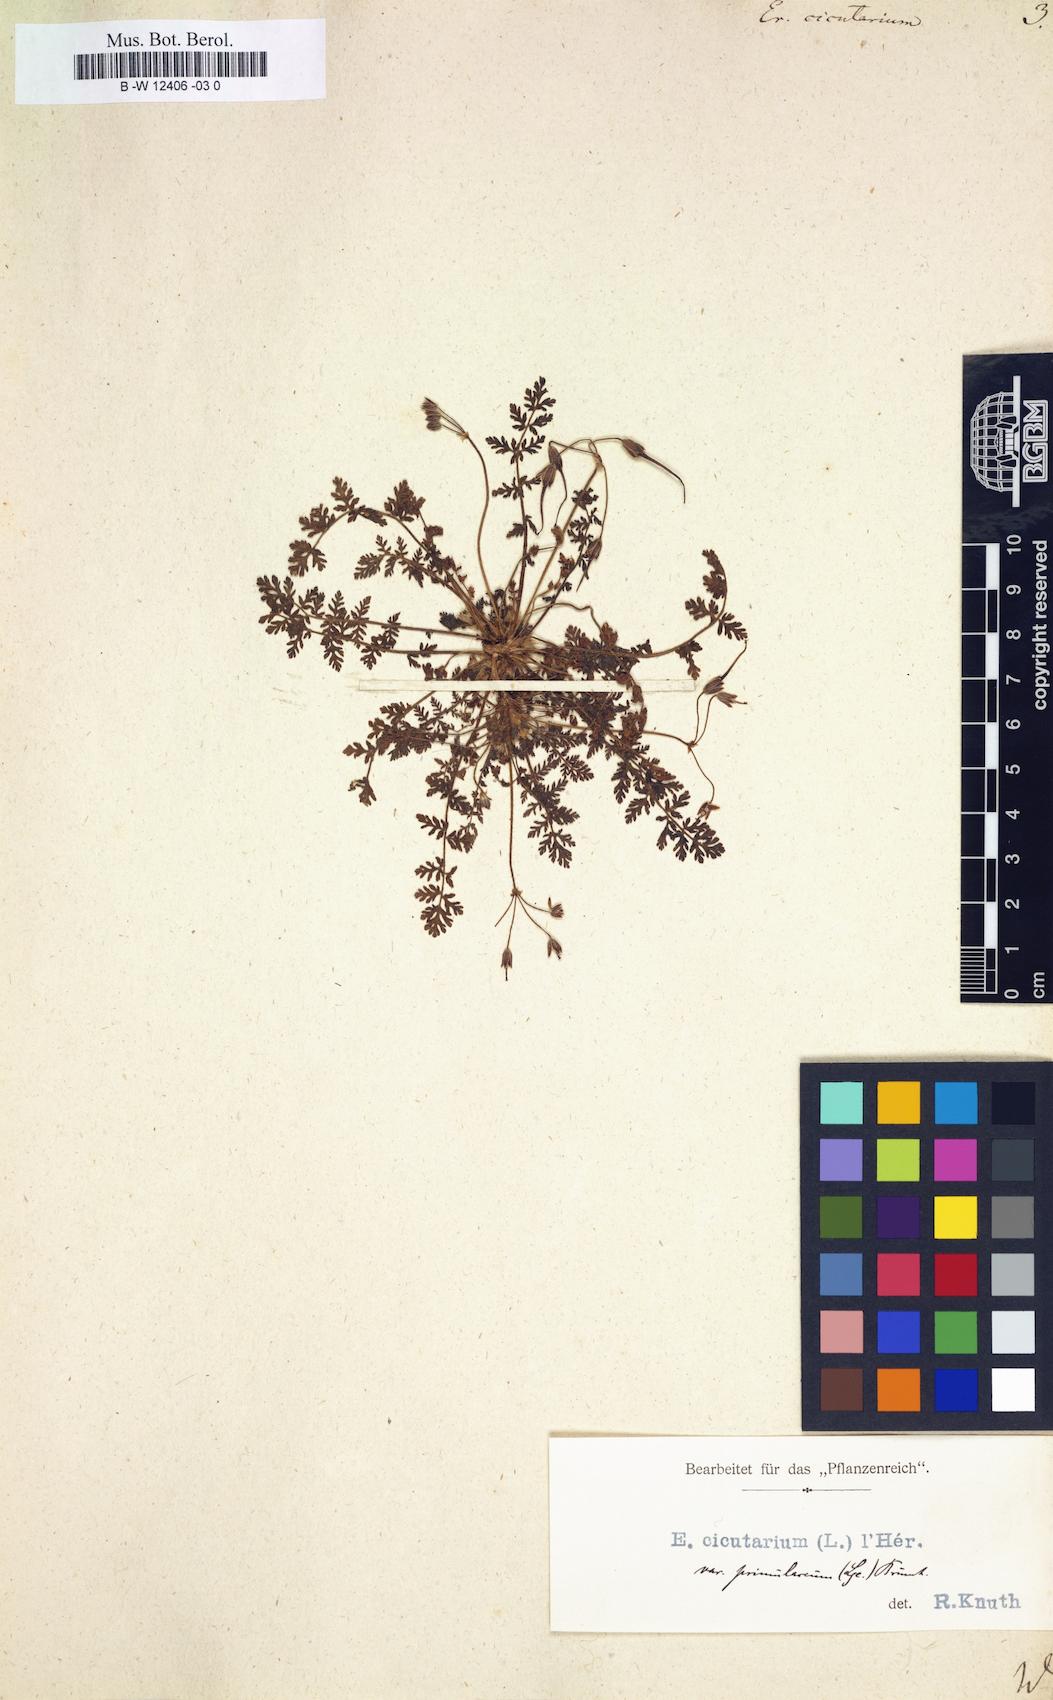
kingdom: Plantae
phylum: Tracheophyta
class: Magnoliopsida
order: Geraniales
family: Geraniaceae
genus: Erodium
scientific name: Erodium cicutarium
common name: Common stork's-bill
